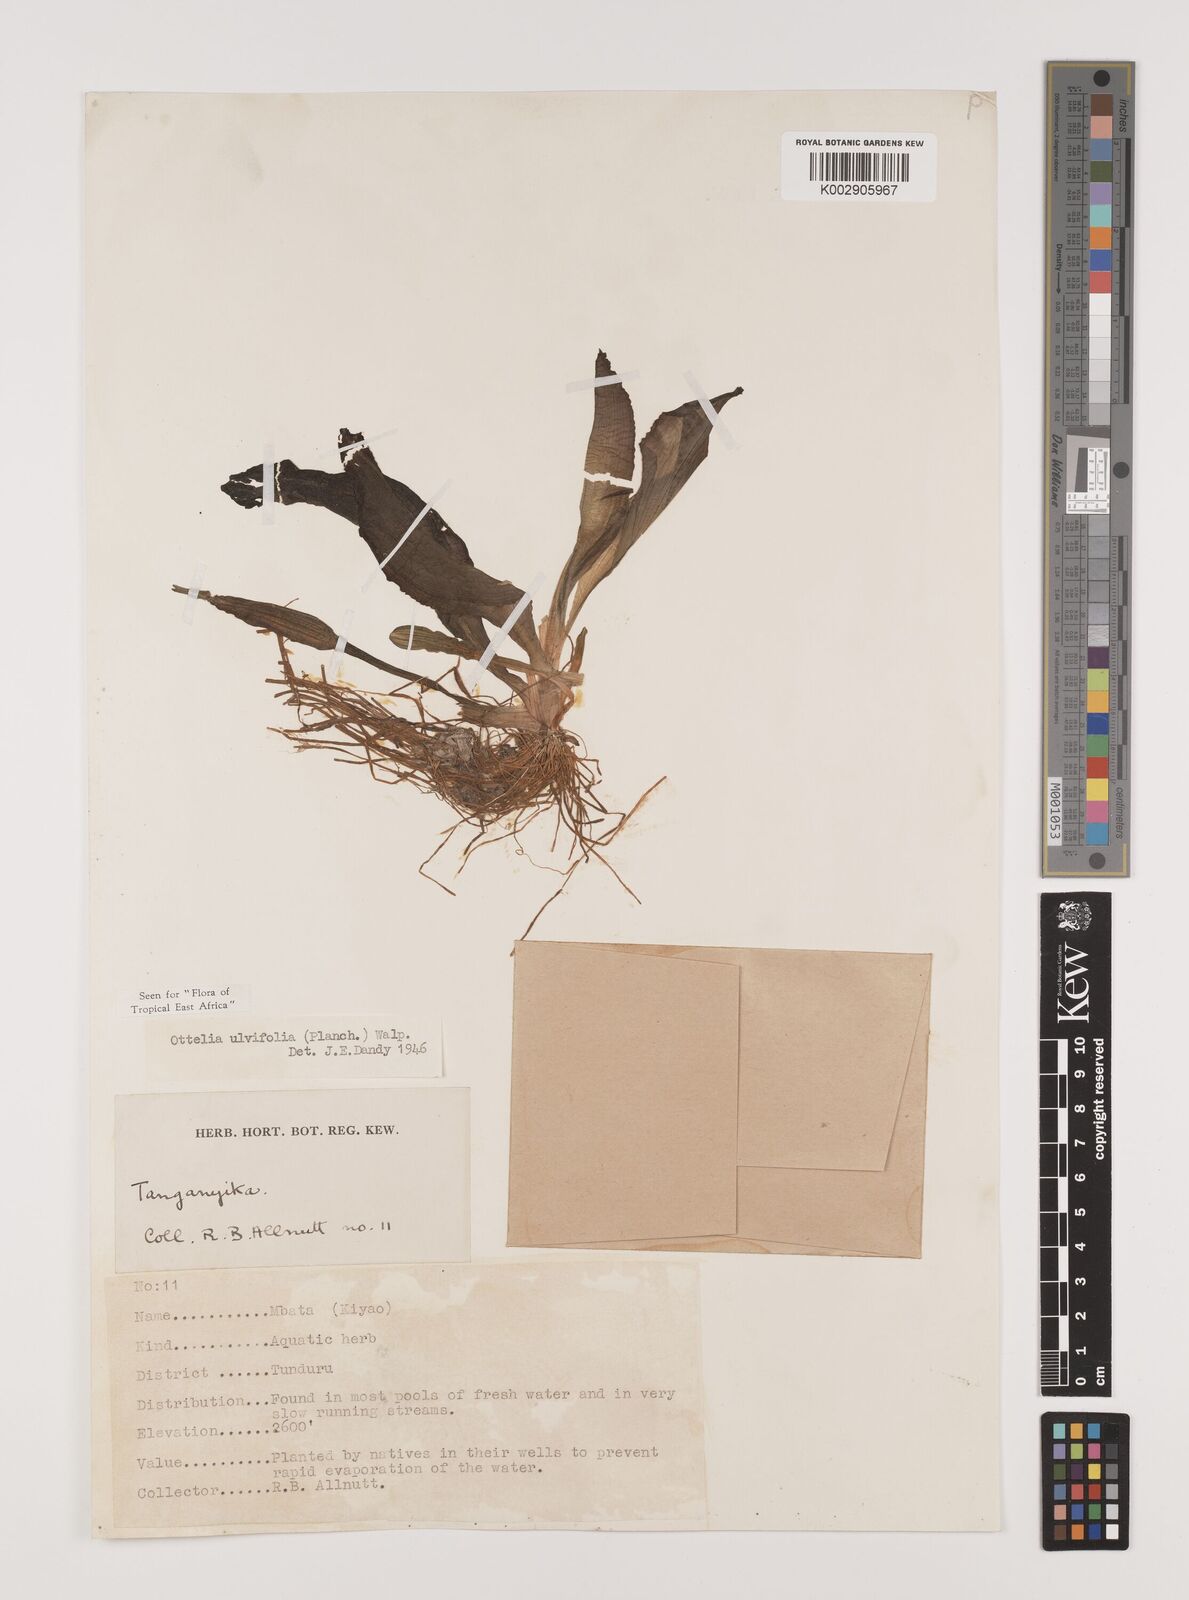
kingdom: Plantae
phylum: Tracheophyta
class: Liliopsida
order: Alismatales
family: Hydrocharitaceae
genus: Ottelia
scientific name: Ottelia ulvifolia
